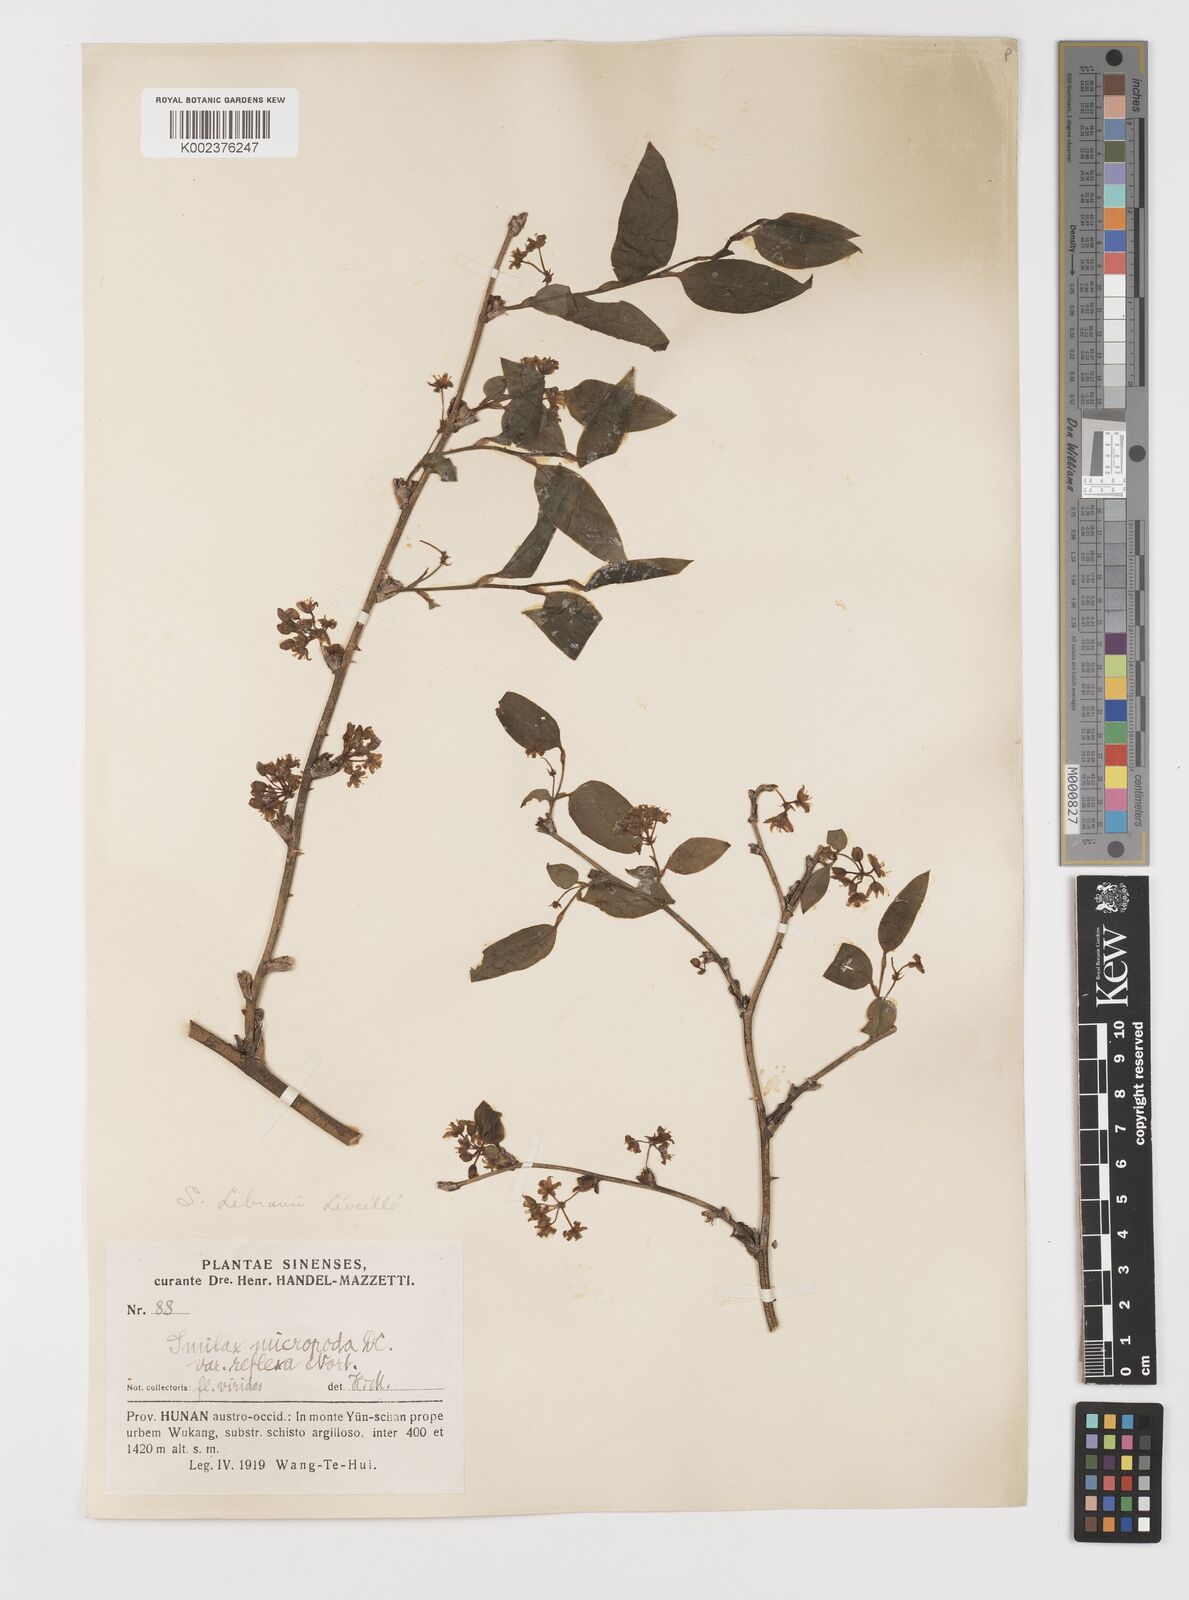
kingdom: Plantae
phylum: Tracheophyta
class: Liliopsida
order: Liliales
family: Smilacaceae
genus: Smilax
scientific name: Smilax lebrunii
